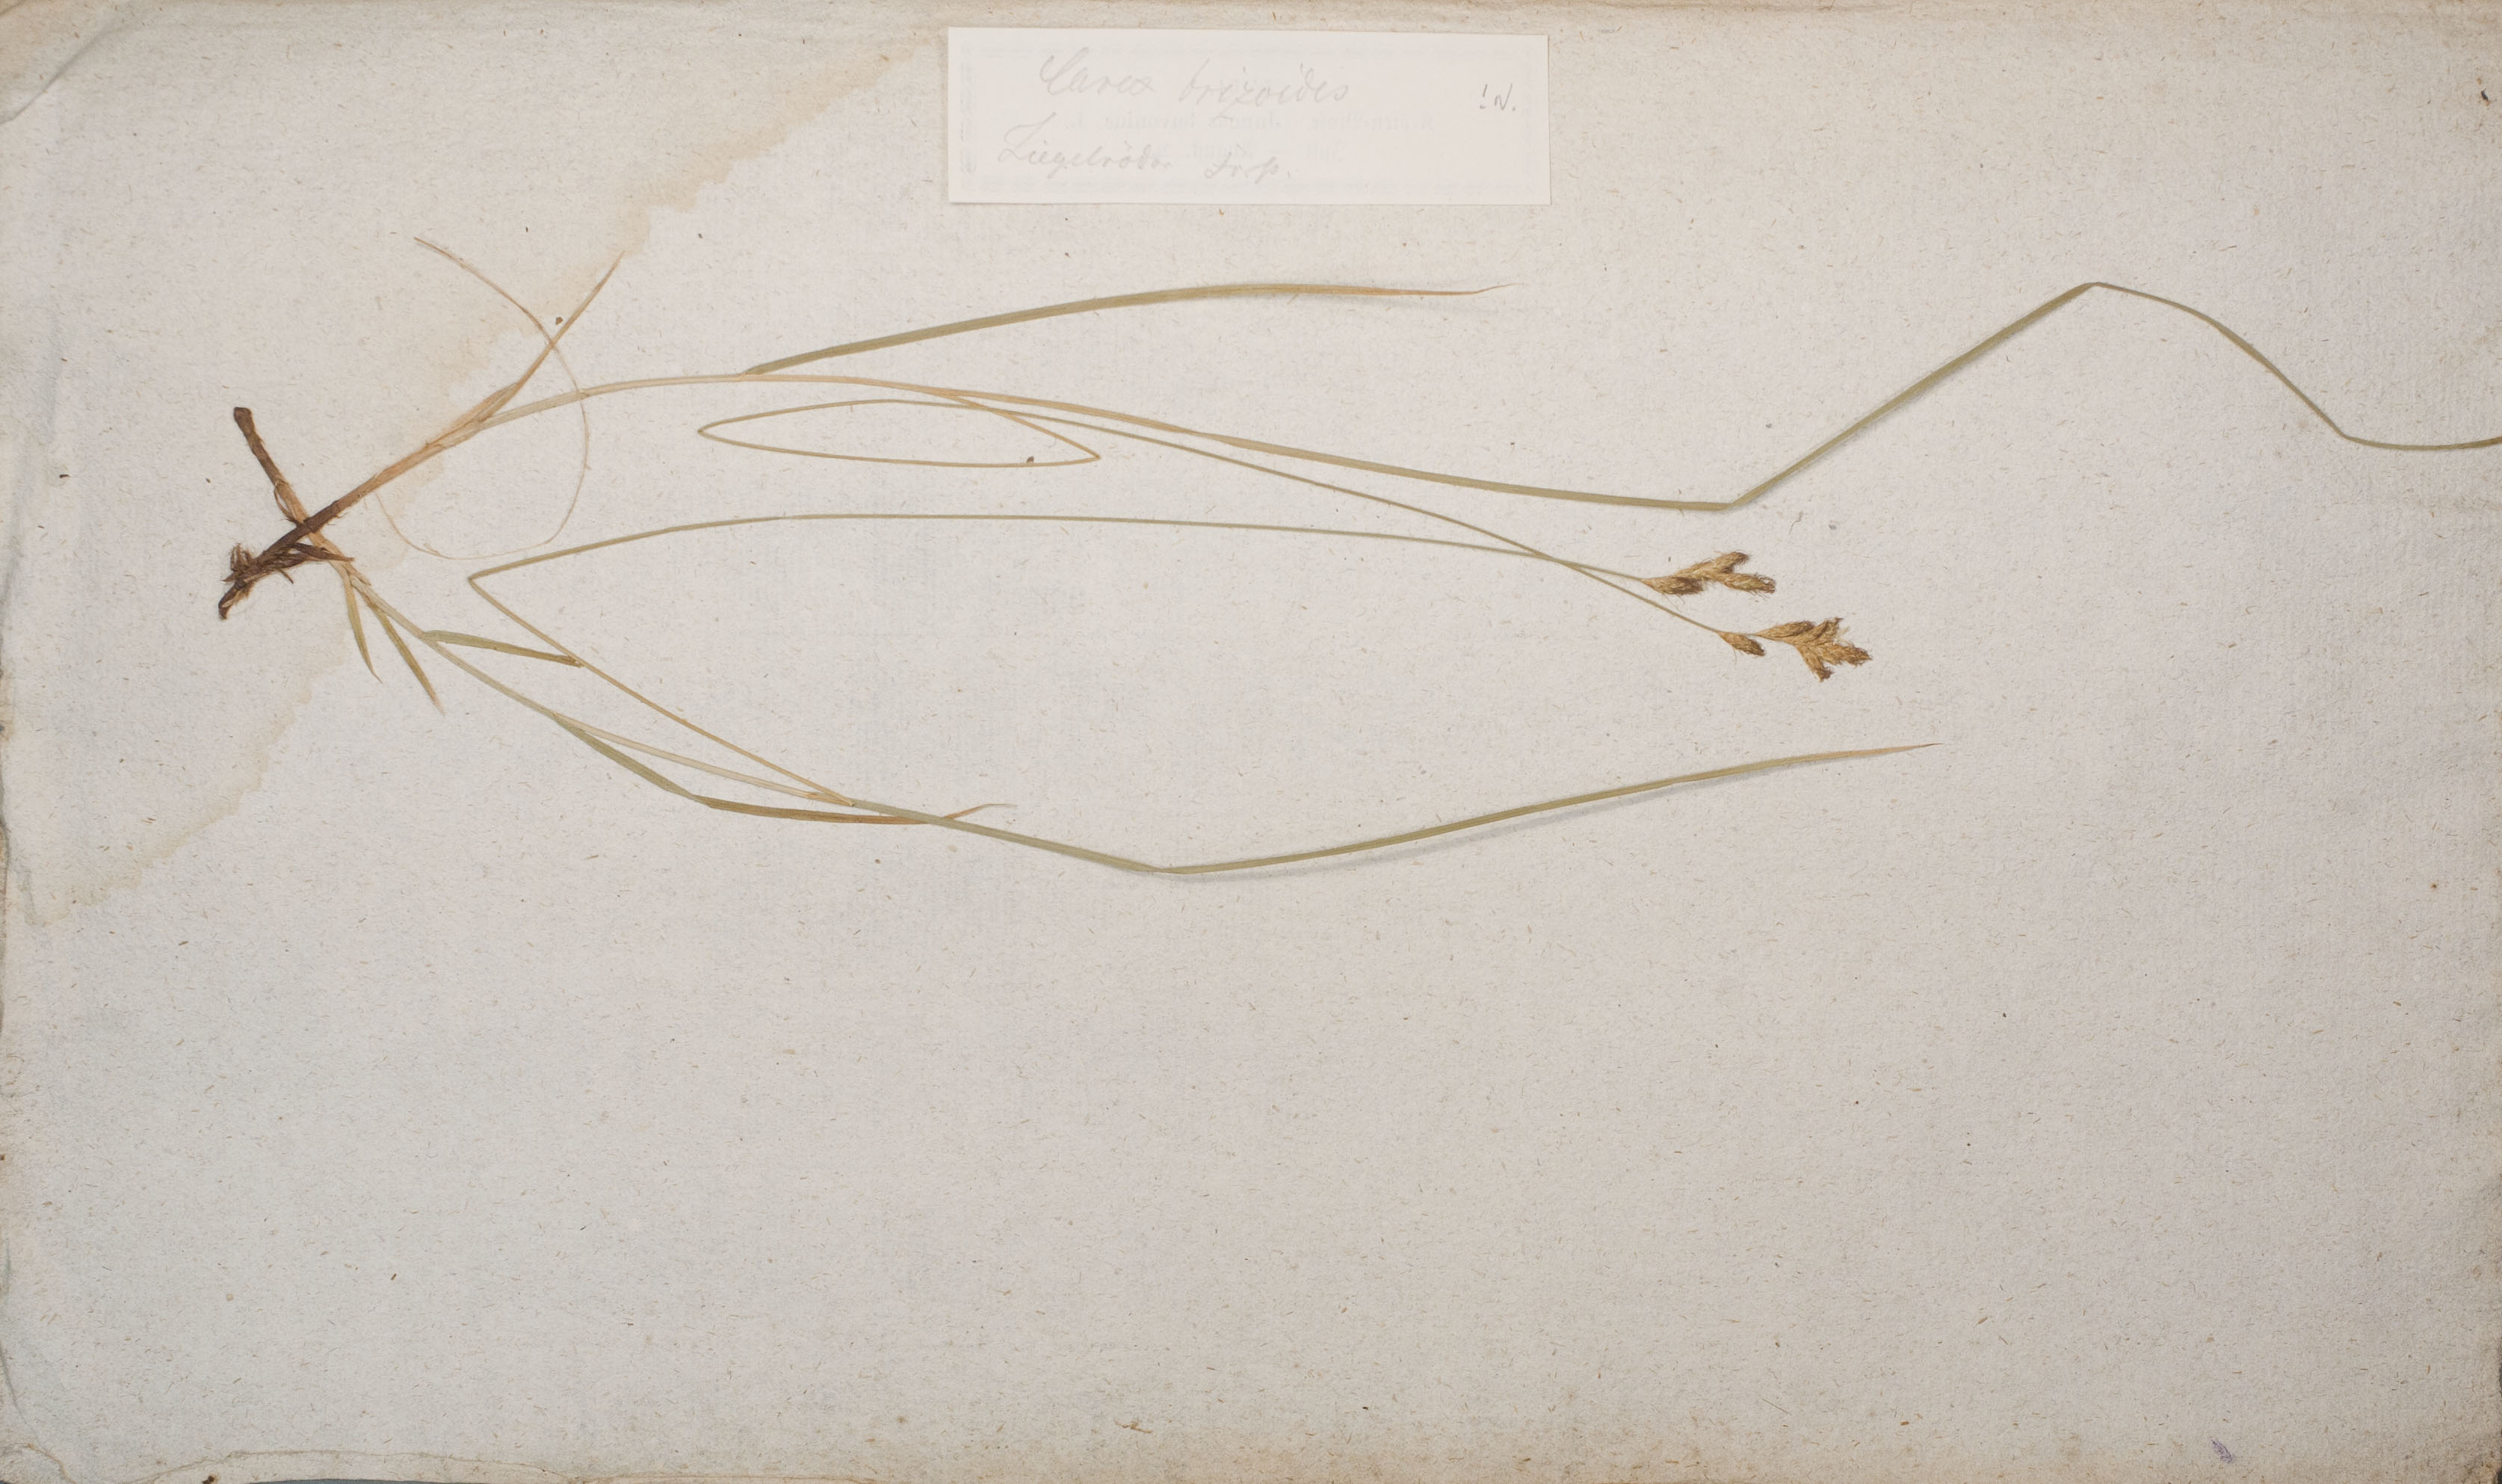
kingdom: Plantae
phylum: Tracheophyta
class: Liliopsida
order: Poales
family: Cyperaceae
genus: Carex
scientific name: Carex brizoides
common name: Quaking-grass sedge
